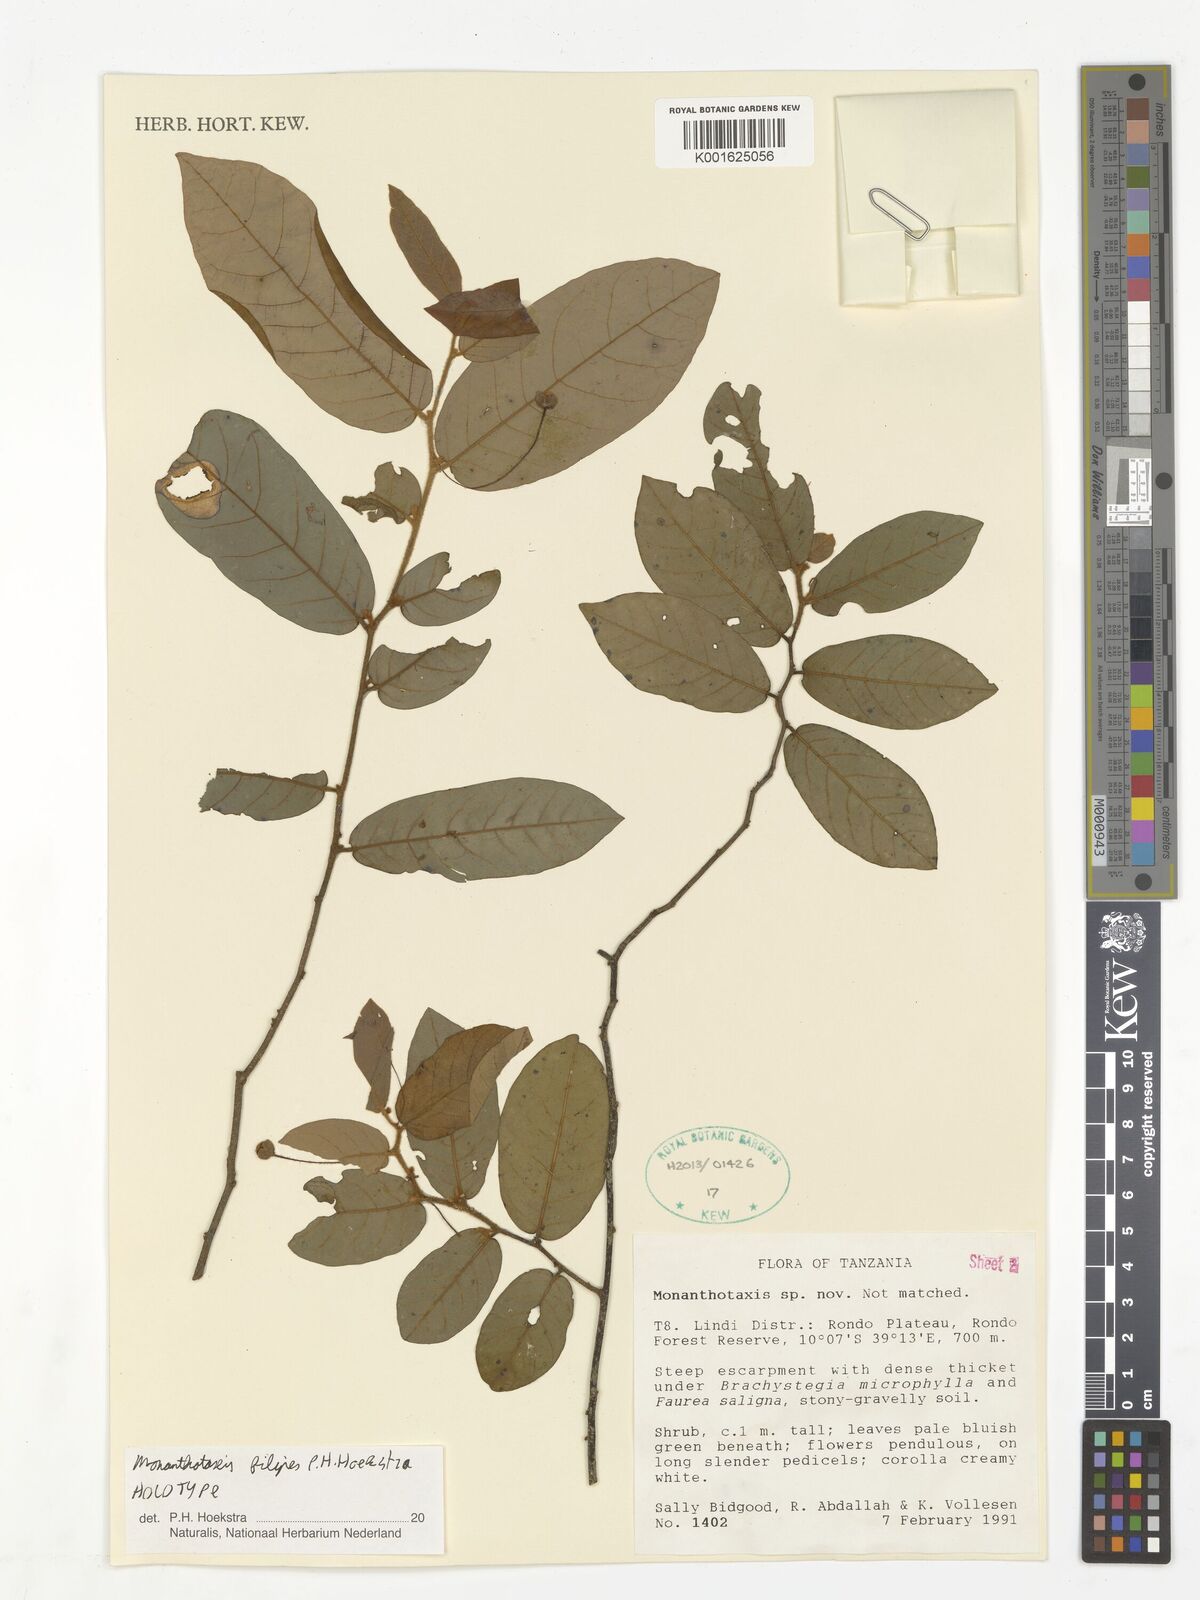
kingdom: Plantae
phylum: Tracheophyta
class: Magnoliopsida
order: Magnoliales
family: Annonaceae
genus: Monanthotaxis
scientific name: Monanthotaxis filipes
